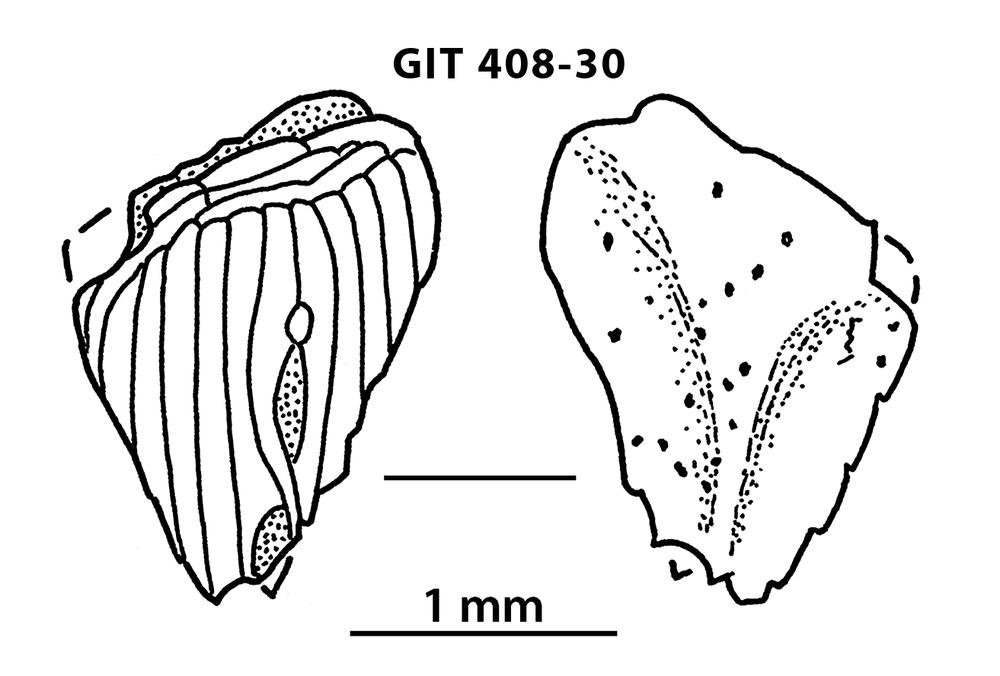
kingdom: Animalia
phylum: Chordata
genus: Archegonaspis
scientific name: Archegonaspis
